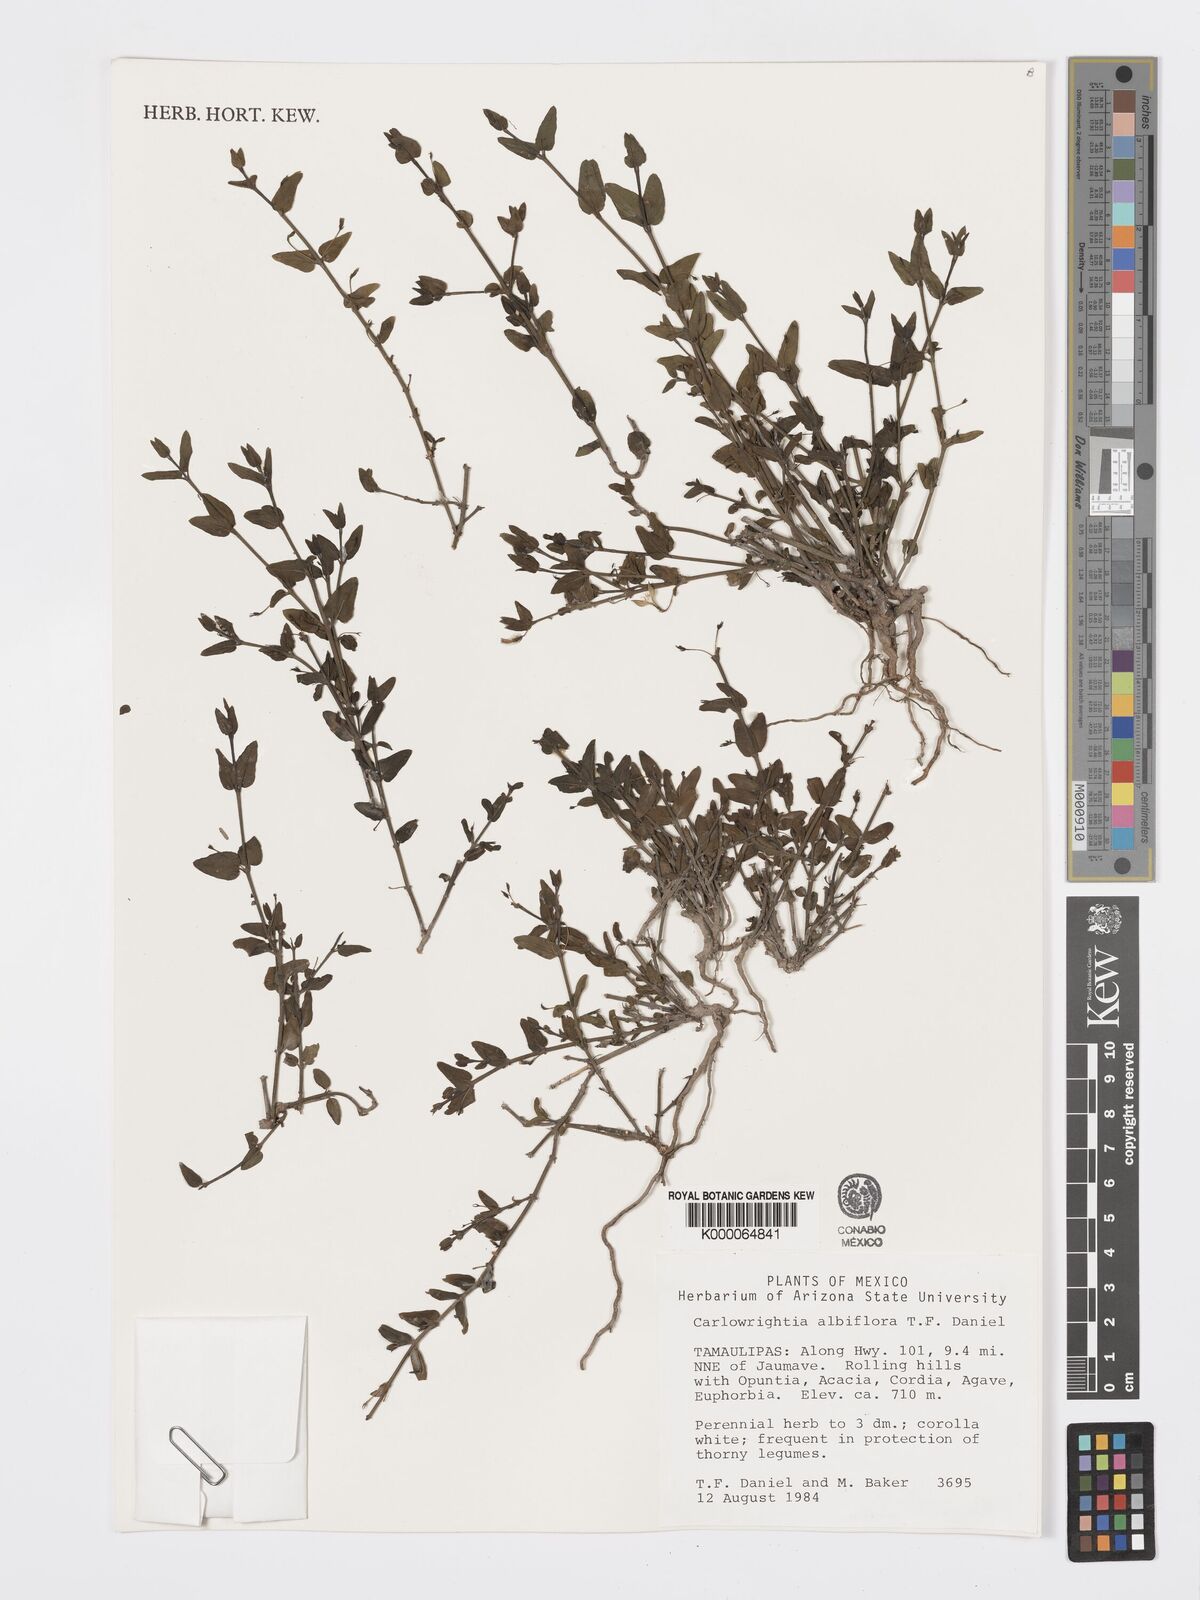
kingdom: Plantae
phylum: Tracheophyta
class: Magnoliopsida
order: Lamiales
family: Acanthaceae
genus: Carlowrightia
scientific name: Carlowrightia albiflora
